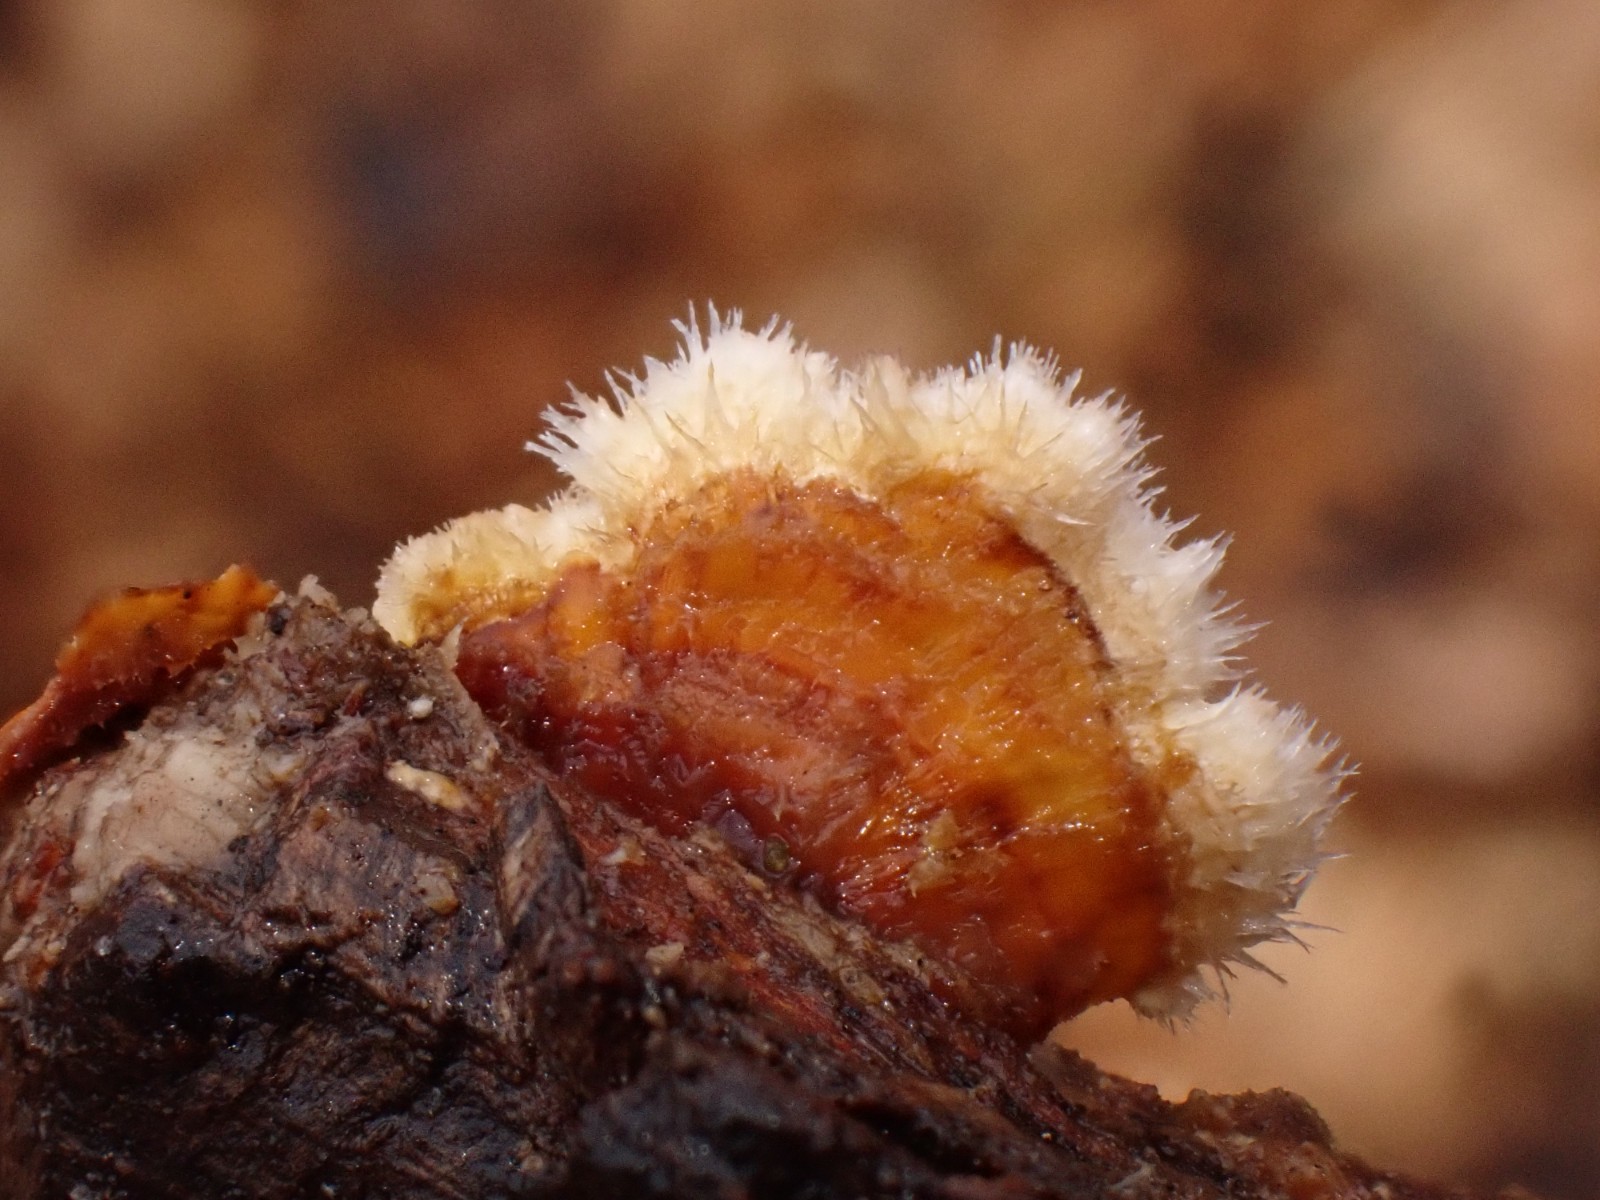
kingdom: Fungi
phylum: Basidiomycota
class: Agaricomycetes
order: Russulales
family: Stereaceae
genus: Stereum
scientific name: Stereum hirsutum
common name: håret lædersvamp
